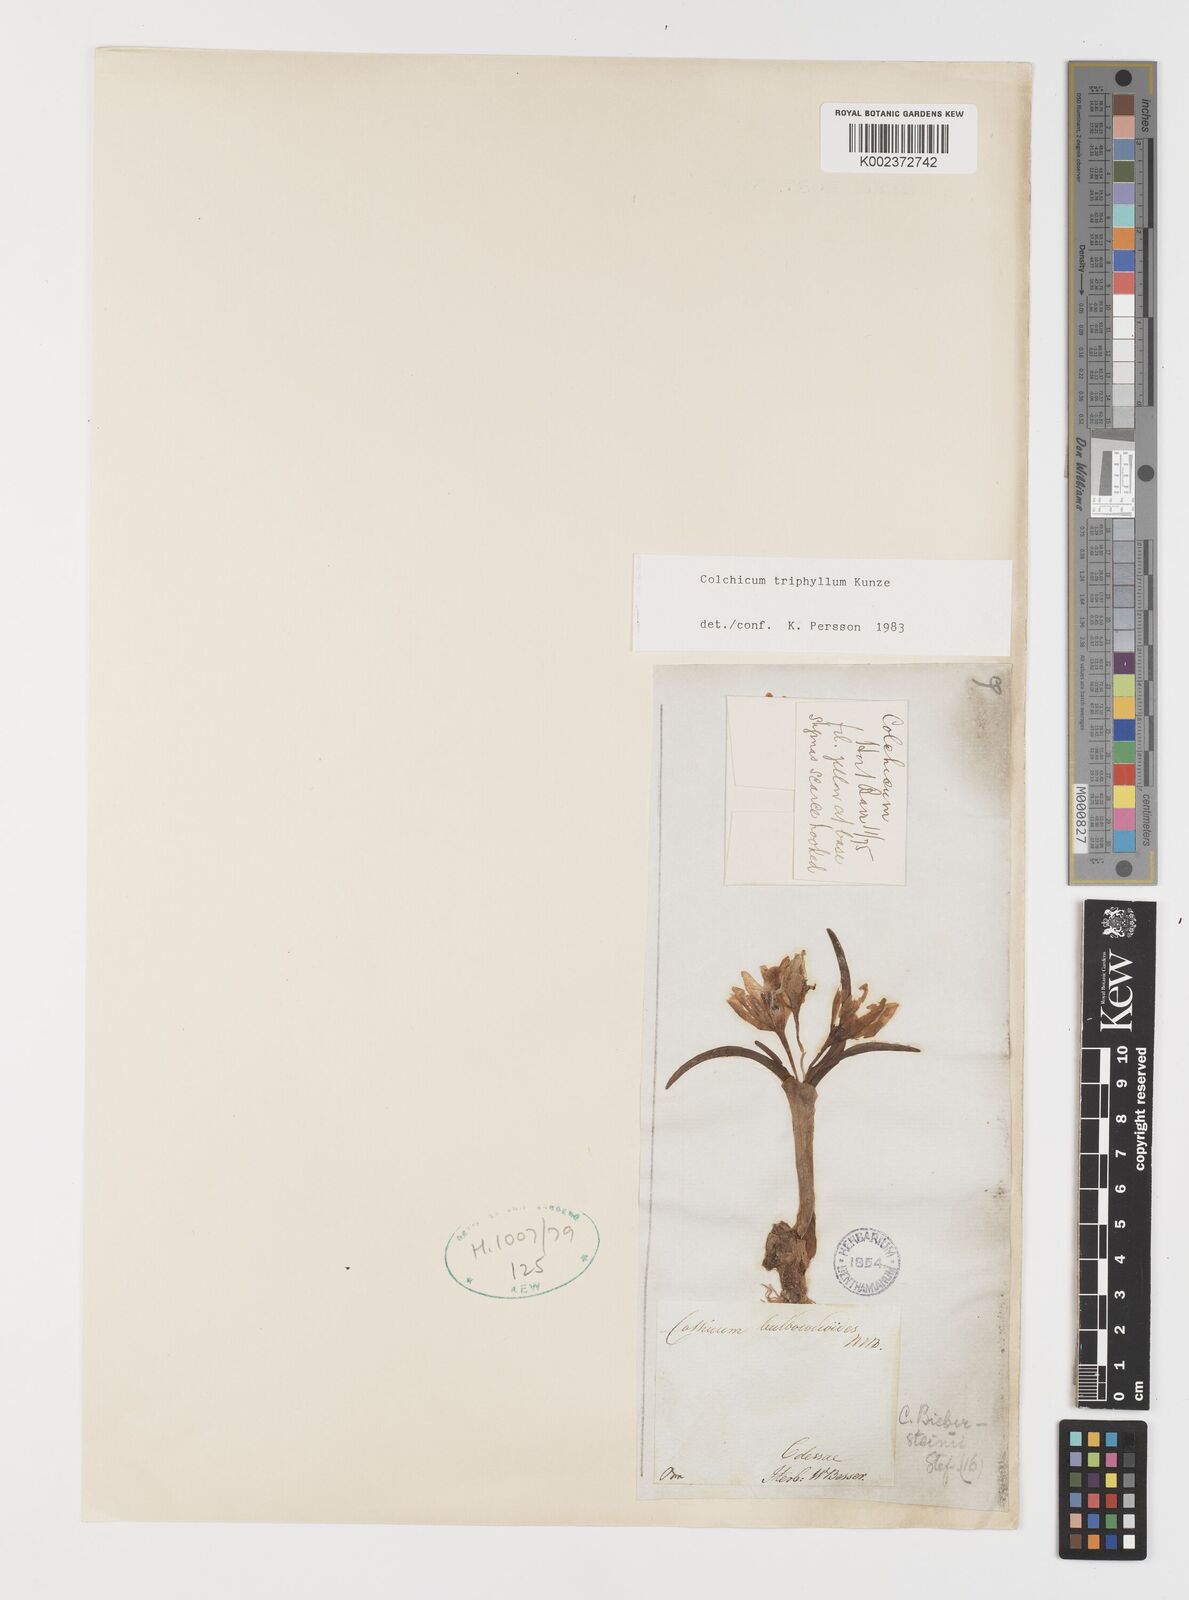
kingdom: Plantae
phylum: Tracheophyta
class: Liliopsida
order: Liliales
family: Colchicaceae
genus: Colchicum
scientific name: Colchicum triphyllum
